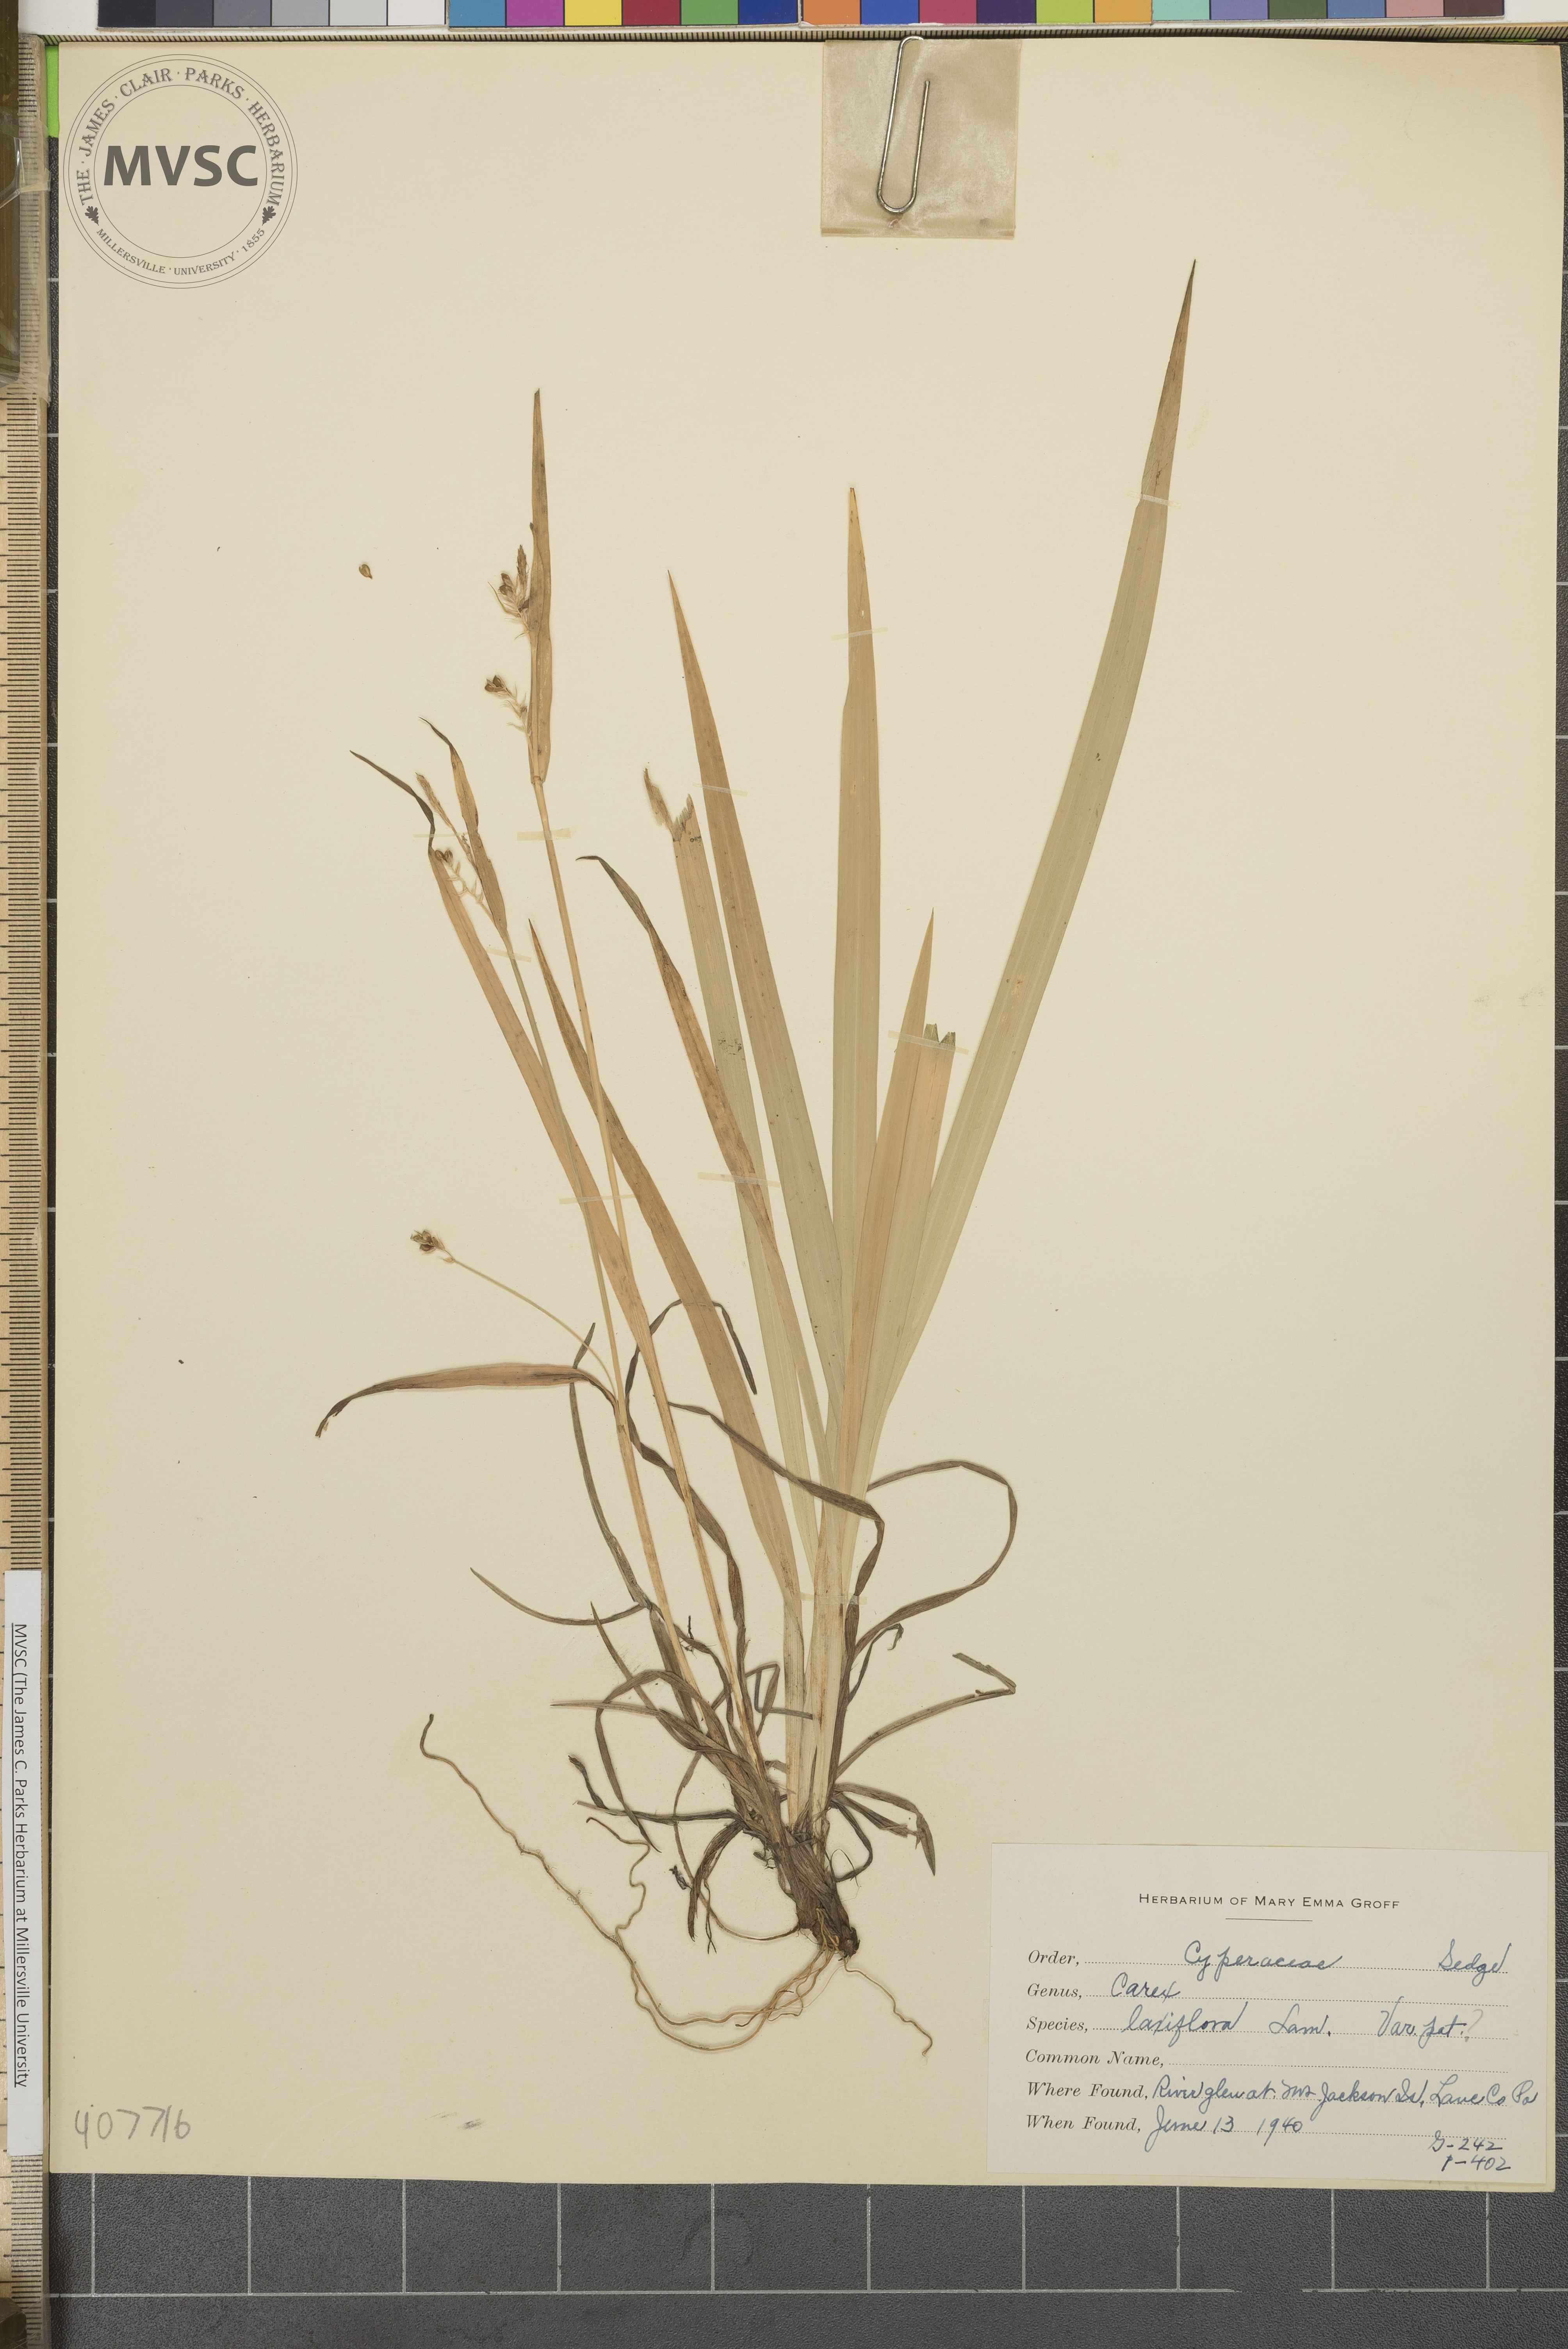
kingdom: Plantae
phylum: Tracheophyta
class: Liliopsida
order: Poales
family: Cyperaceae
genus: Carex
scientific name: Carex laxiflora
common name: Beech wood sedge
